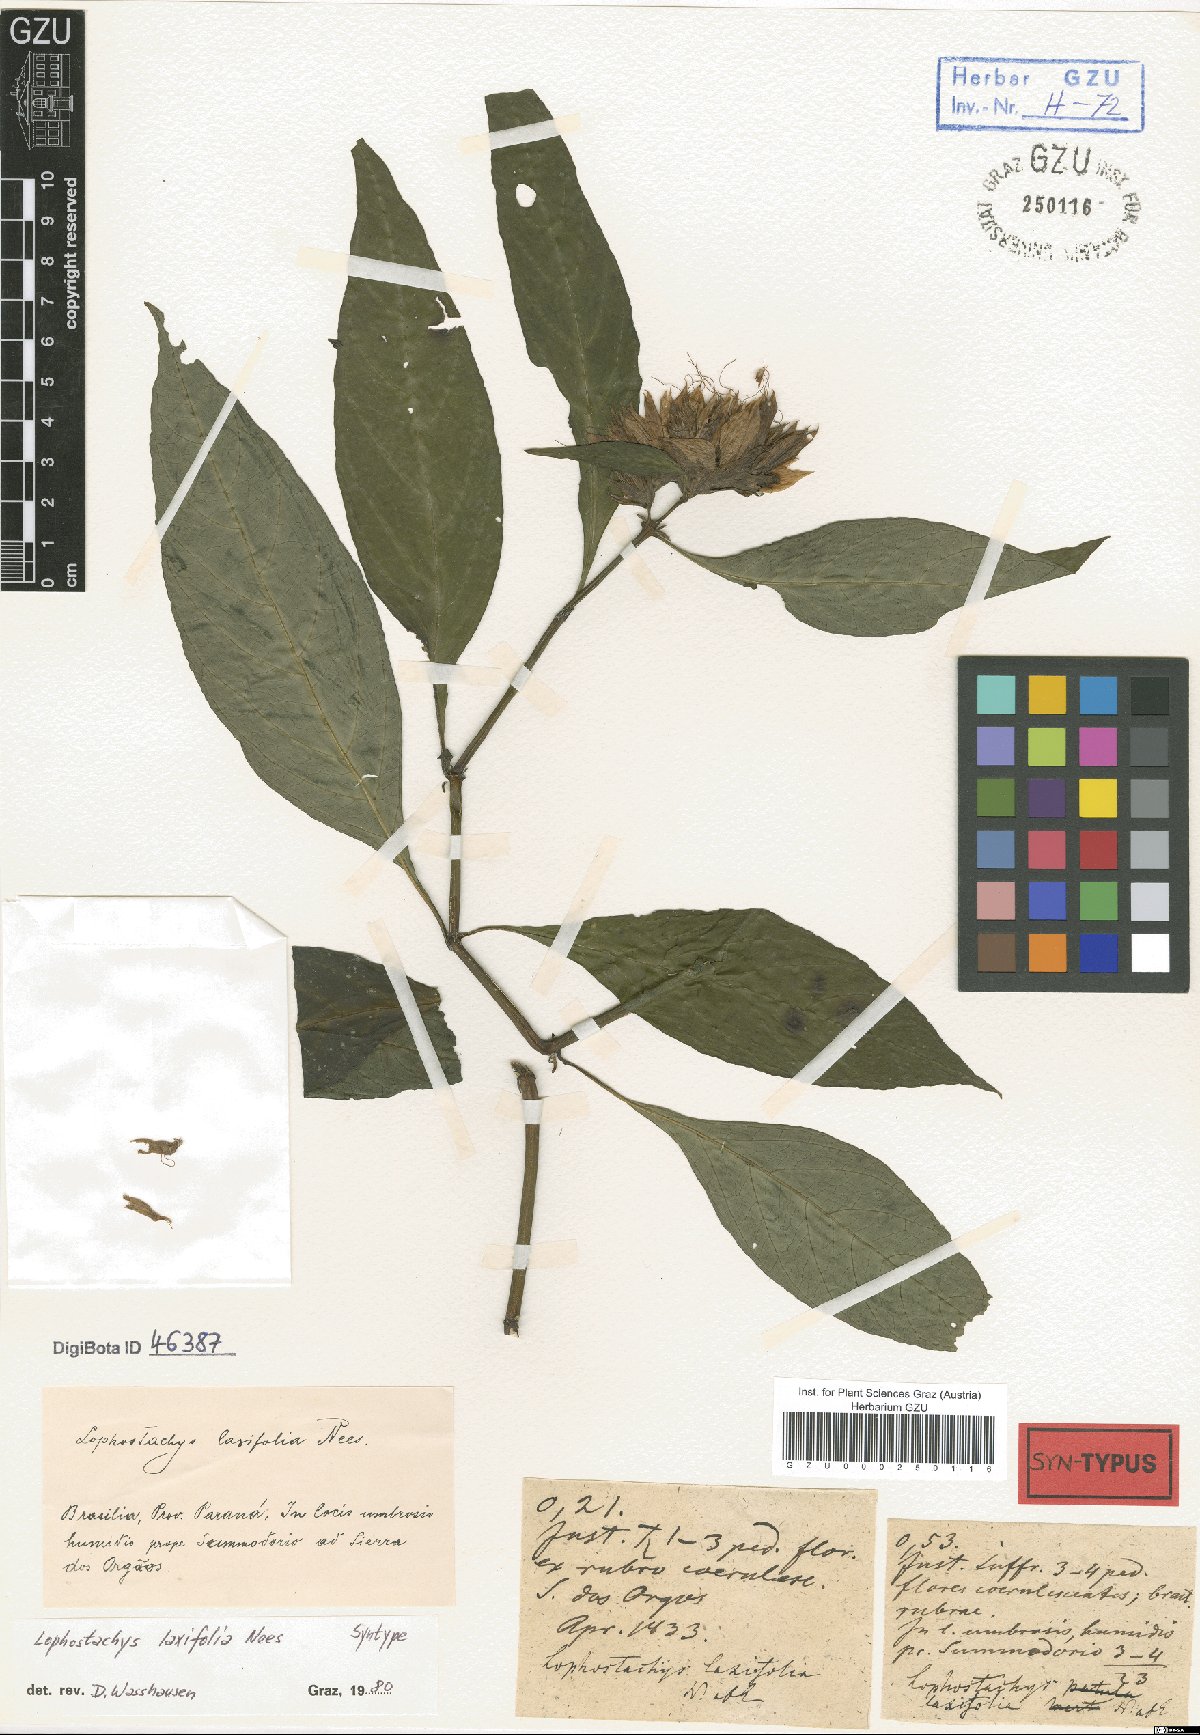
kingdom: Plantae
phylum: Tracheophyta
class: Magnoliopsida
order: Lamiales
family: Acanthaceae
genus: Lepidagathis
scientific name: Lepidagathis laxifolia
